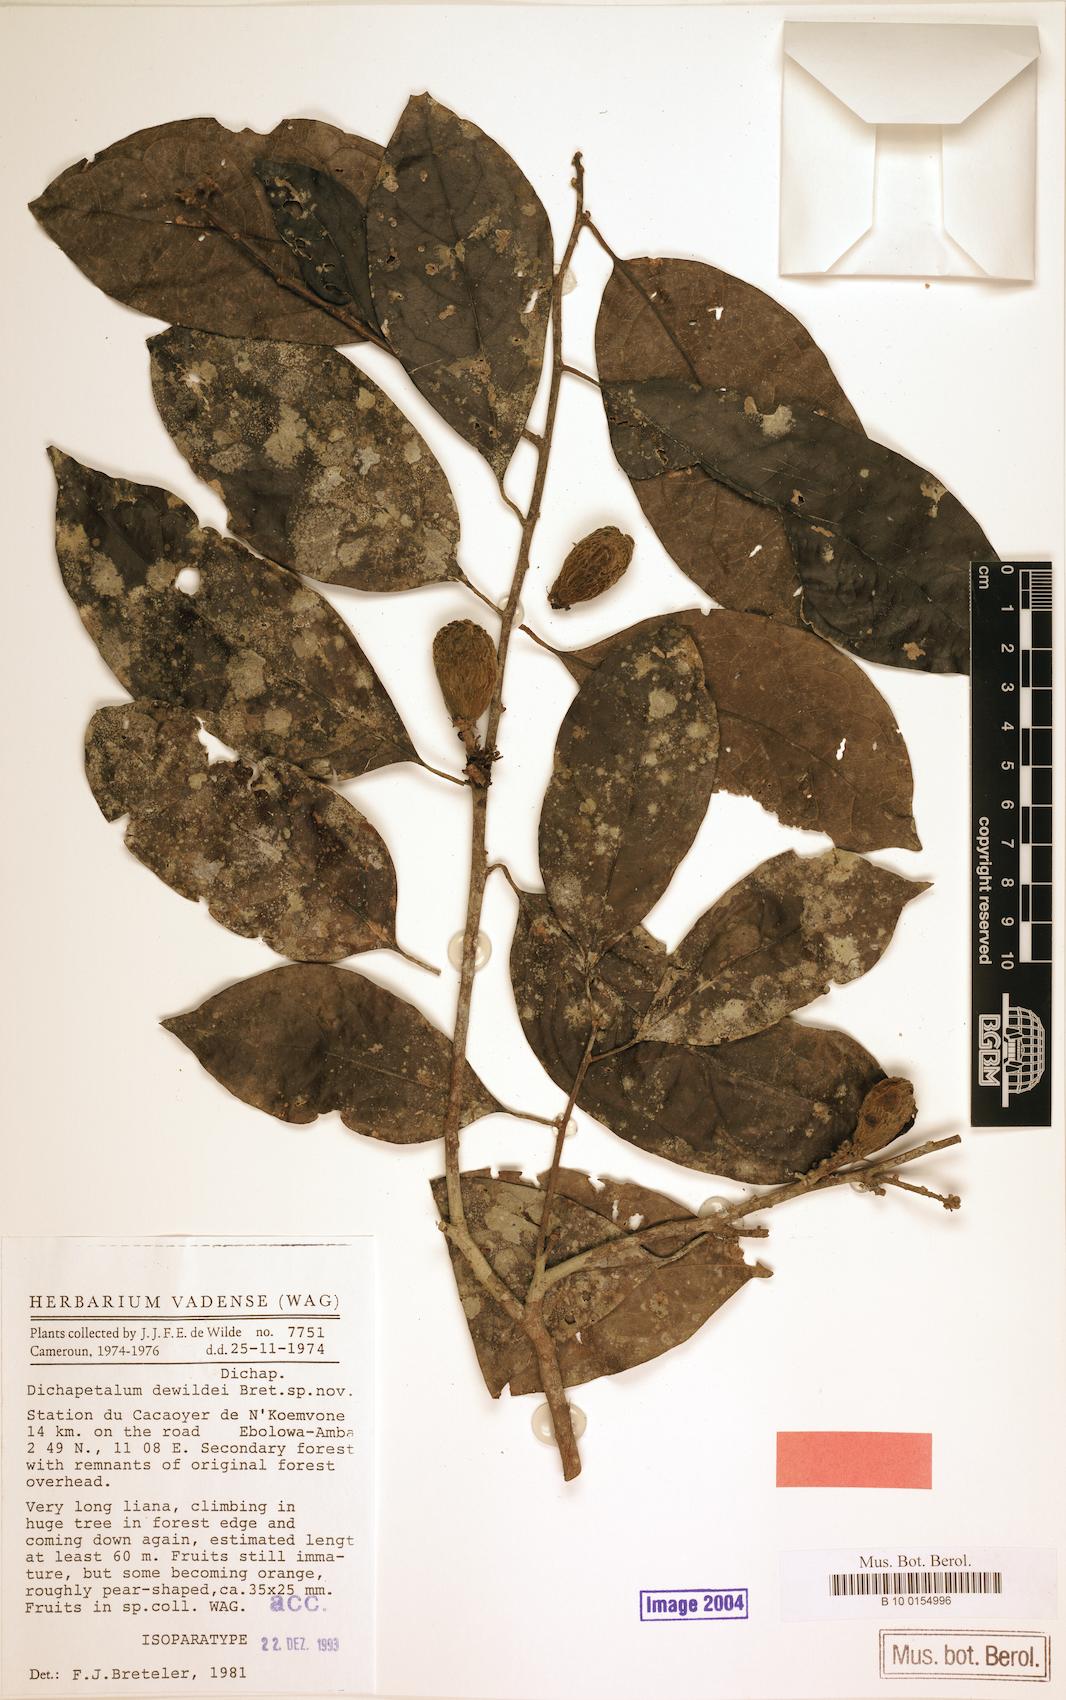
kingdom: Plantae
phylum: Tracheophyta
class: Magnoliopsida
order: Malpighiales
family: Dichapetalaceae
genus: Dichapetalum
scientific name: Dichapetalum dewildei
